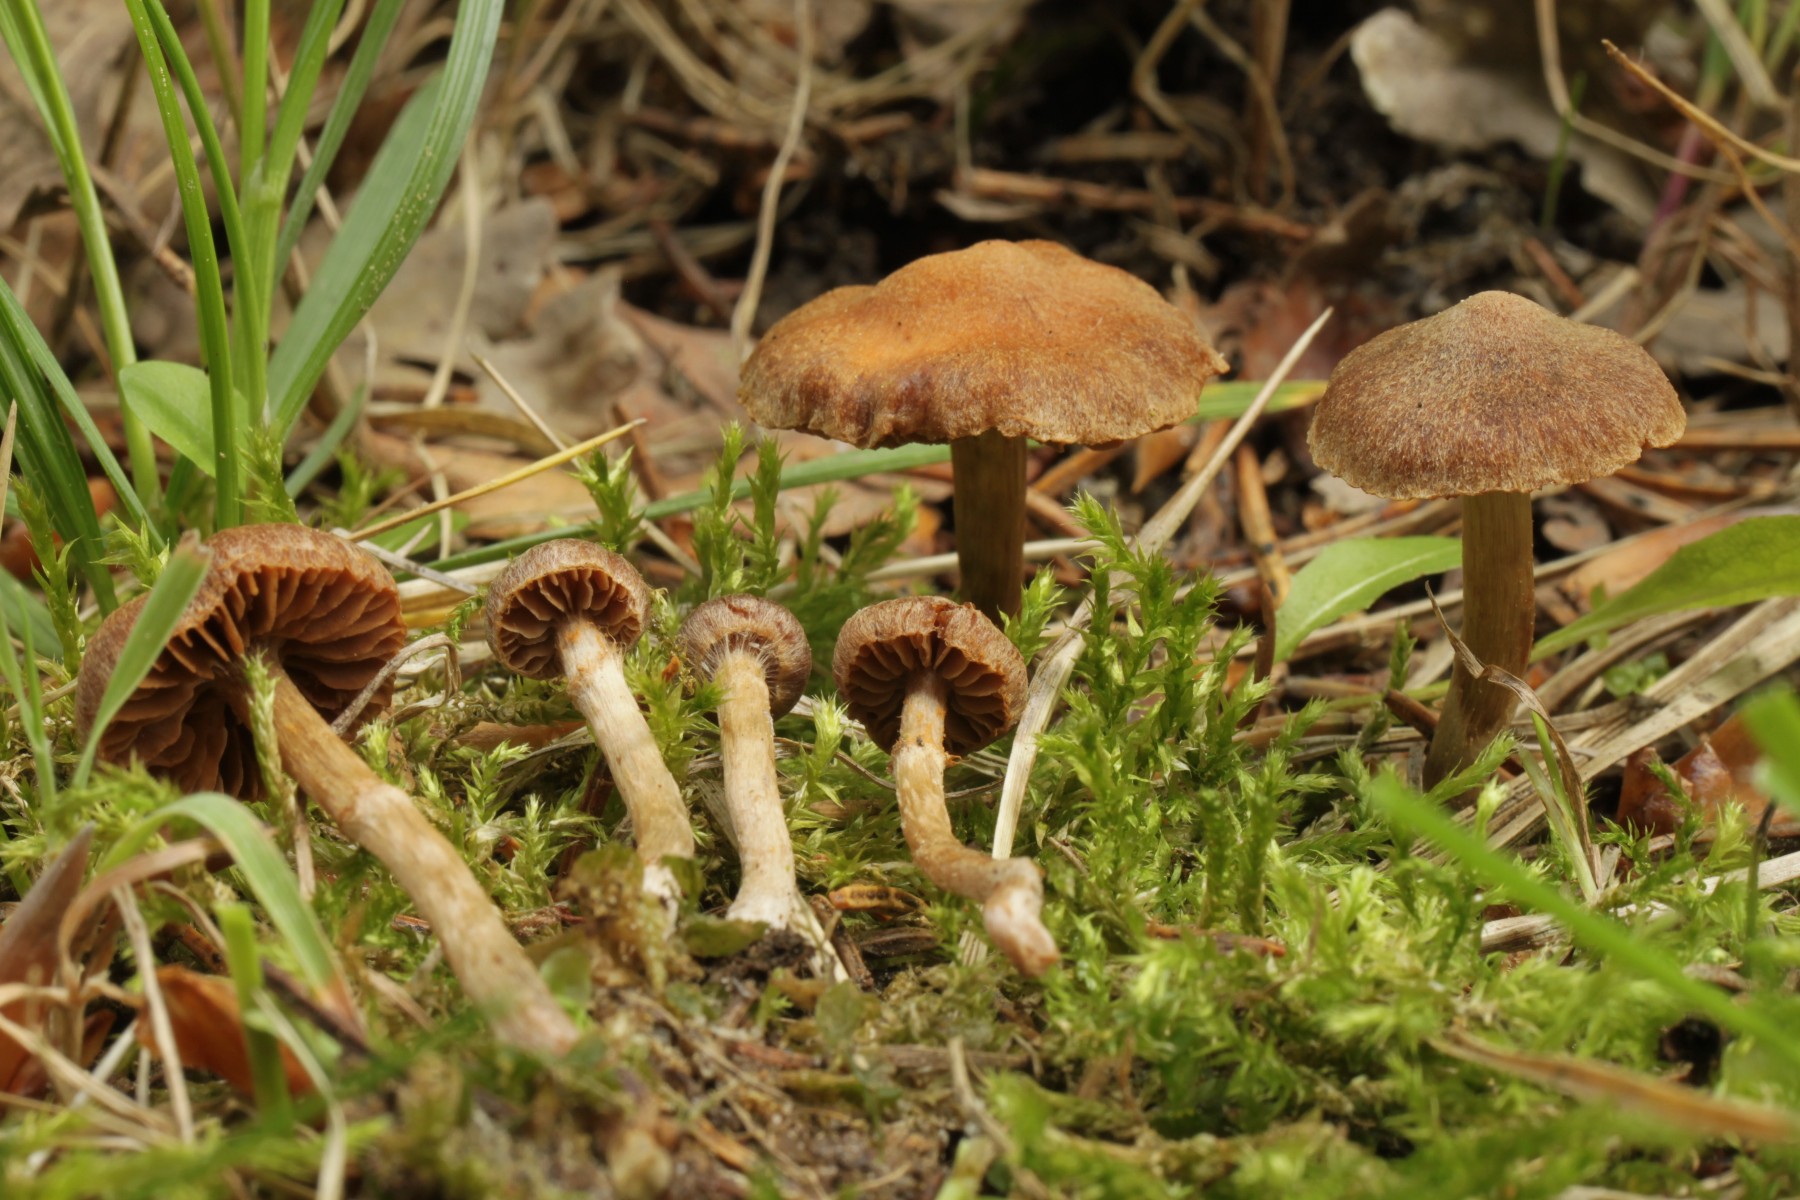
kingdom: Fungi
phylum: Basidiomycota
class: Agaricomycetes
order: Agaricales
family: Cortinariaceae
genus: Cortinarius
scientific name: Cortinarius denigratoides
